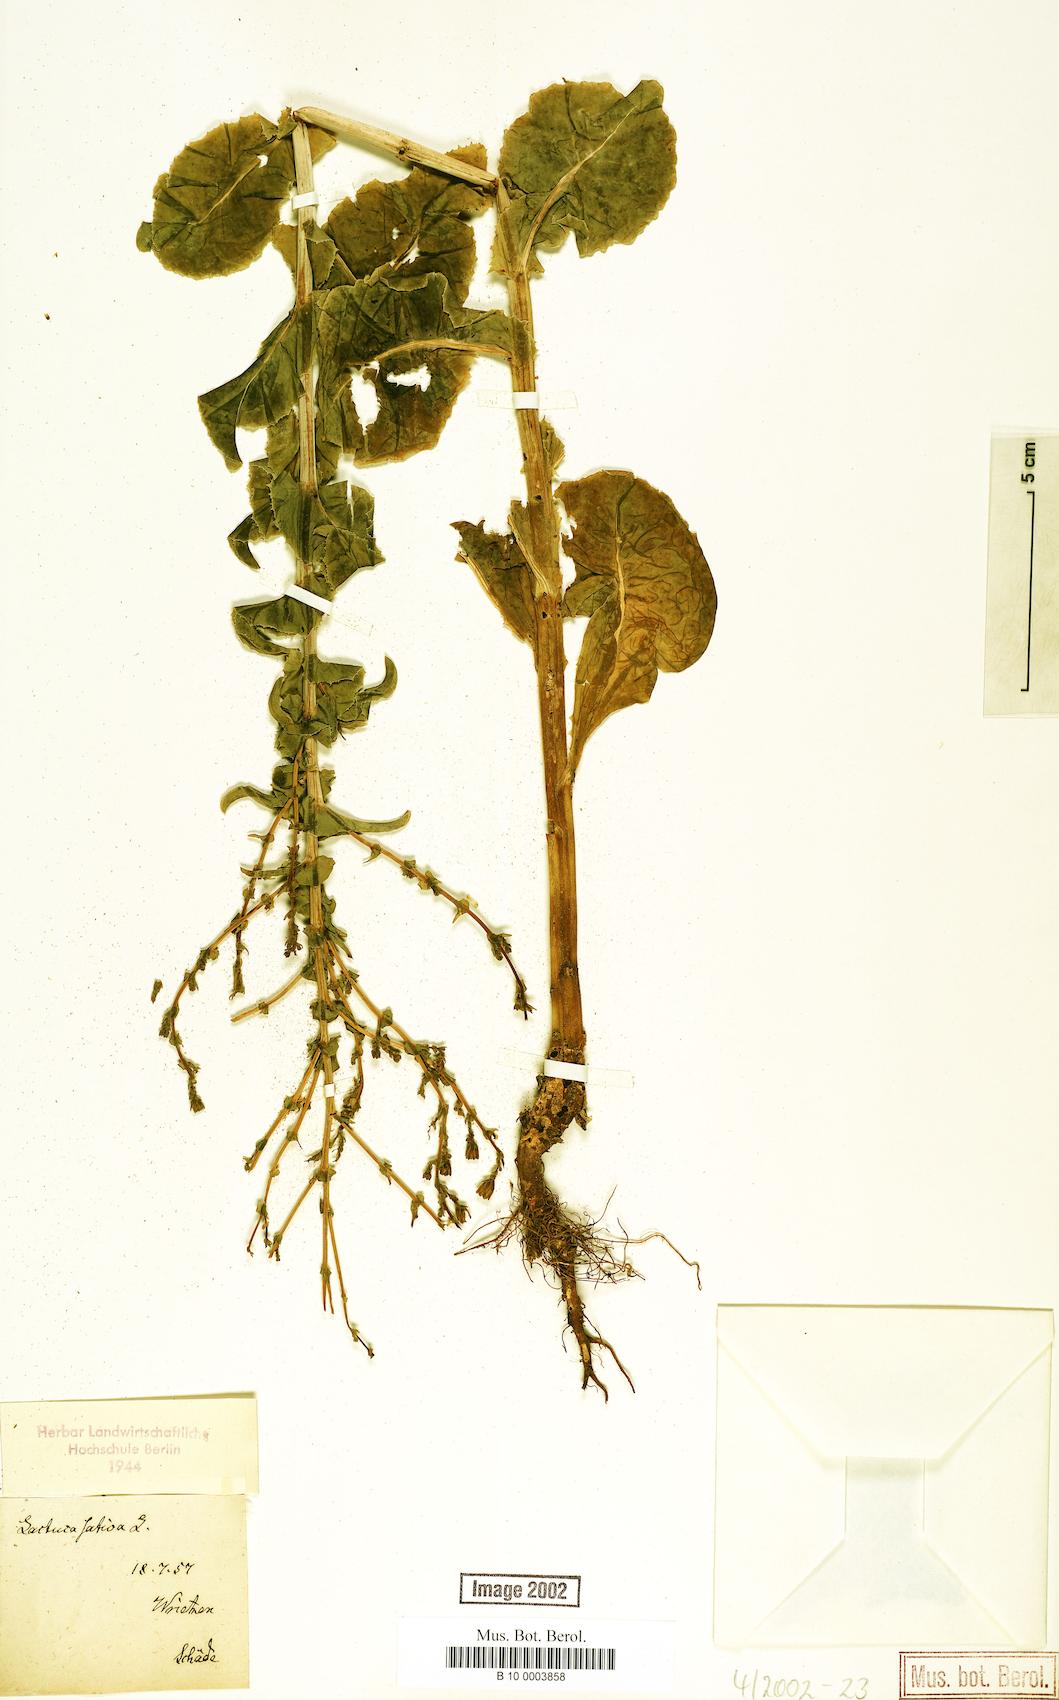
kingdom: Plantae
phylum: Tracheophyta
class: Magnoliopsida
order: Asterales
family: Asteraceae
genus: Lactuca
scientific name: Lactuca sativa
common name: Garden lettuce
